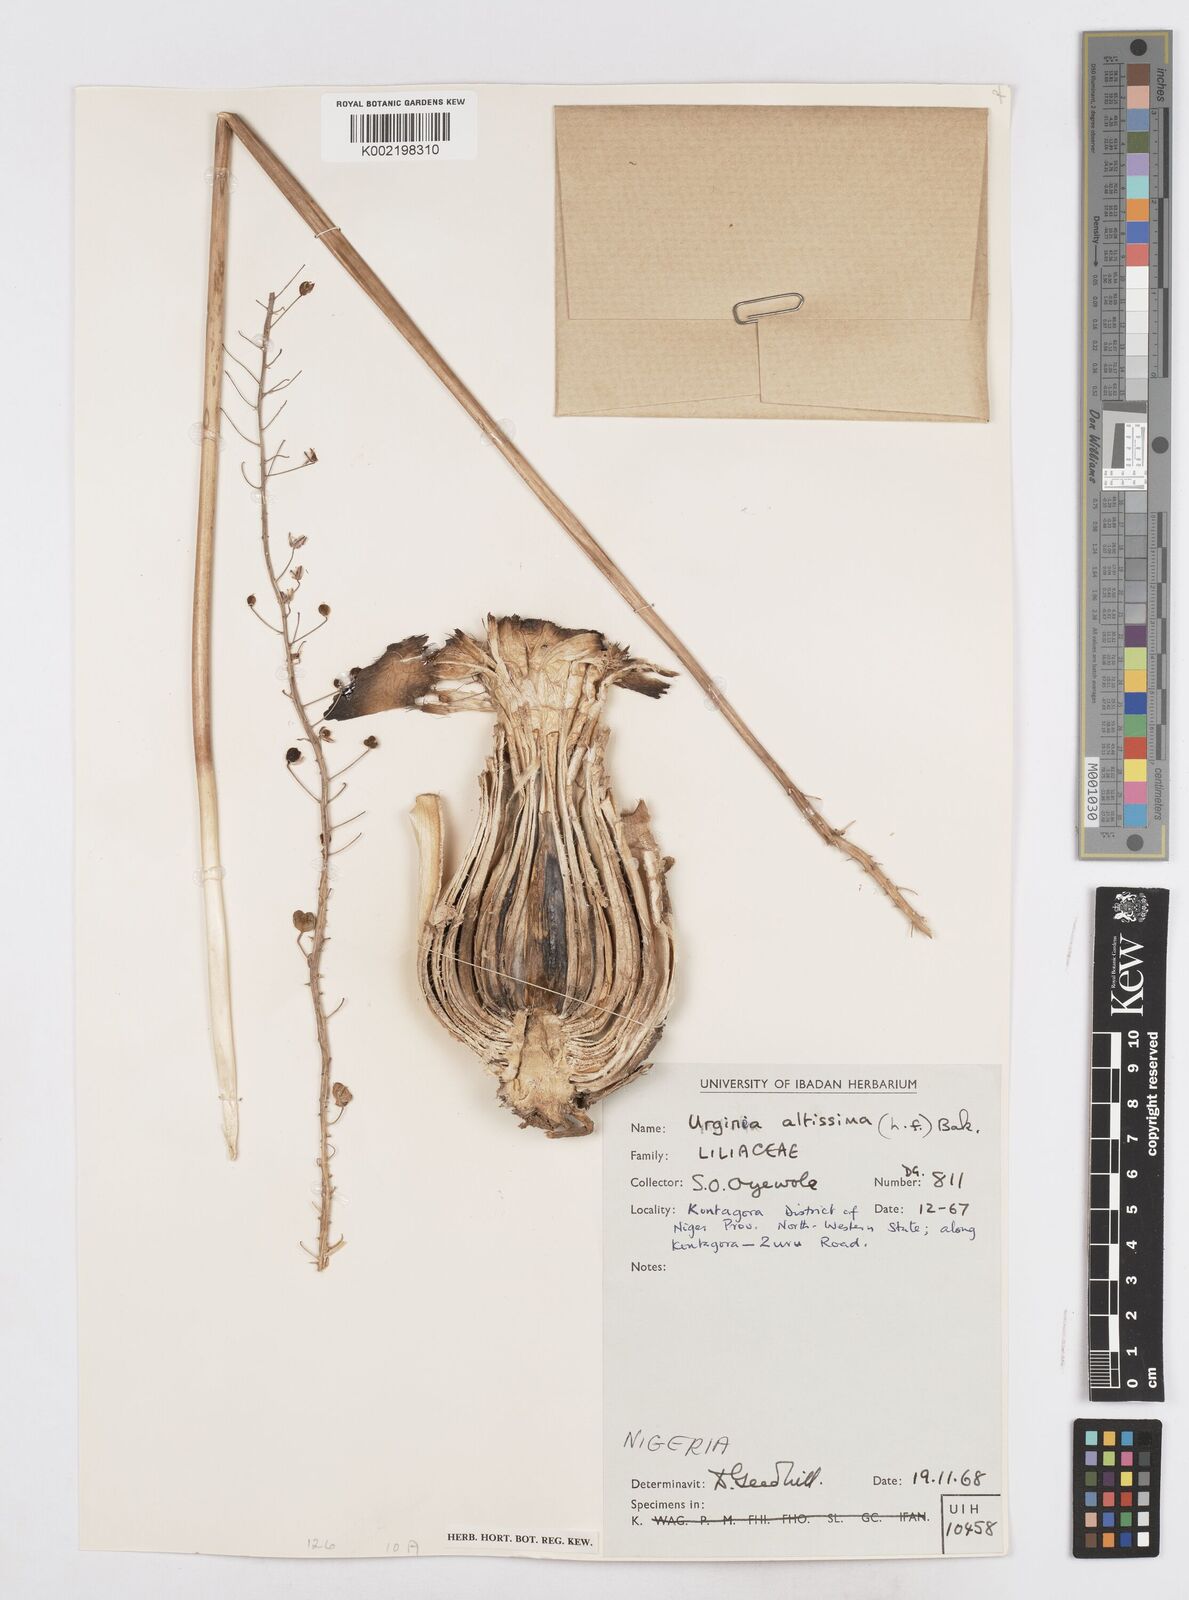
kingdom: Plantae
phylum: Tracheophyta
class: Liliopsida
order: Asparagales
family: Asparagaceae
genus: Drimia
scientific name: Drimia altissima
